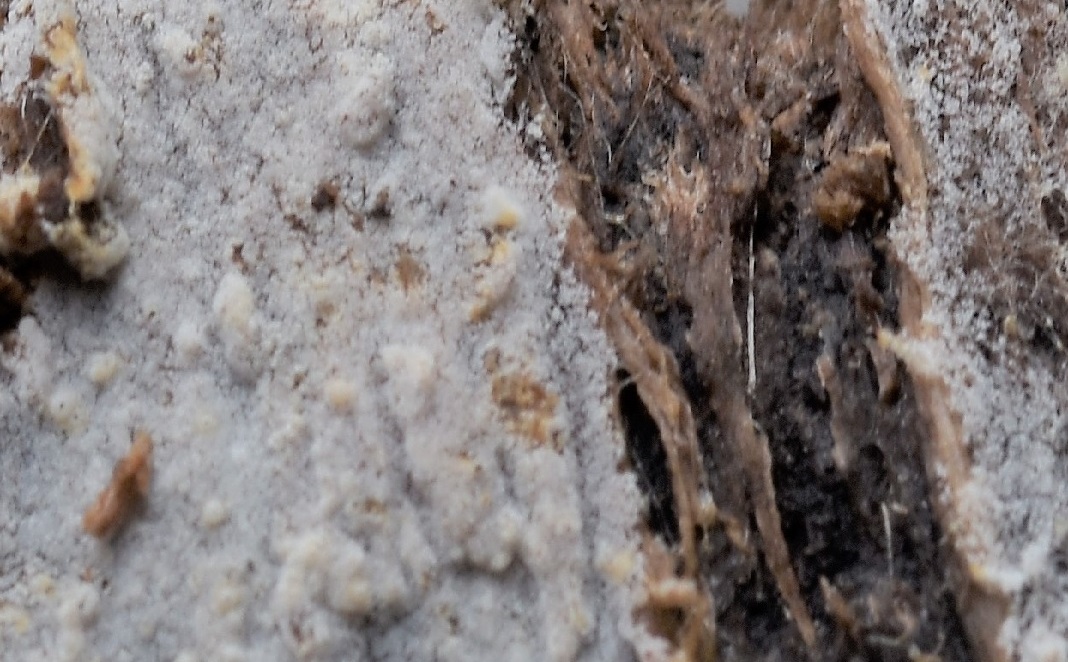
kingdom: Fungi
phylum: Basidiomycota
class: Agaricomycetes
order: Cantharellales
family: Botryobasidiaceae
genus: Botryobasidium
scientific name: Botryobasidium subcoronatum
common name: almindelig spindhinde
